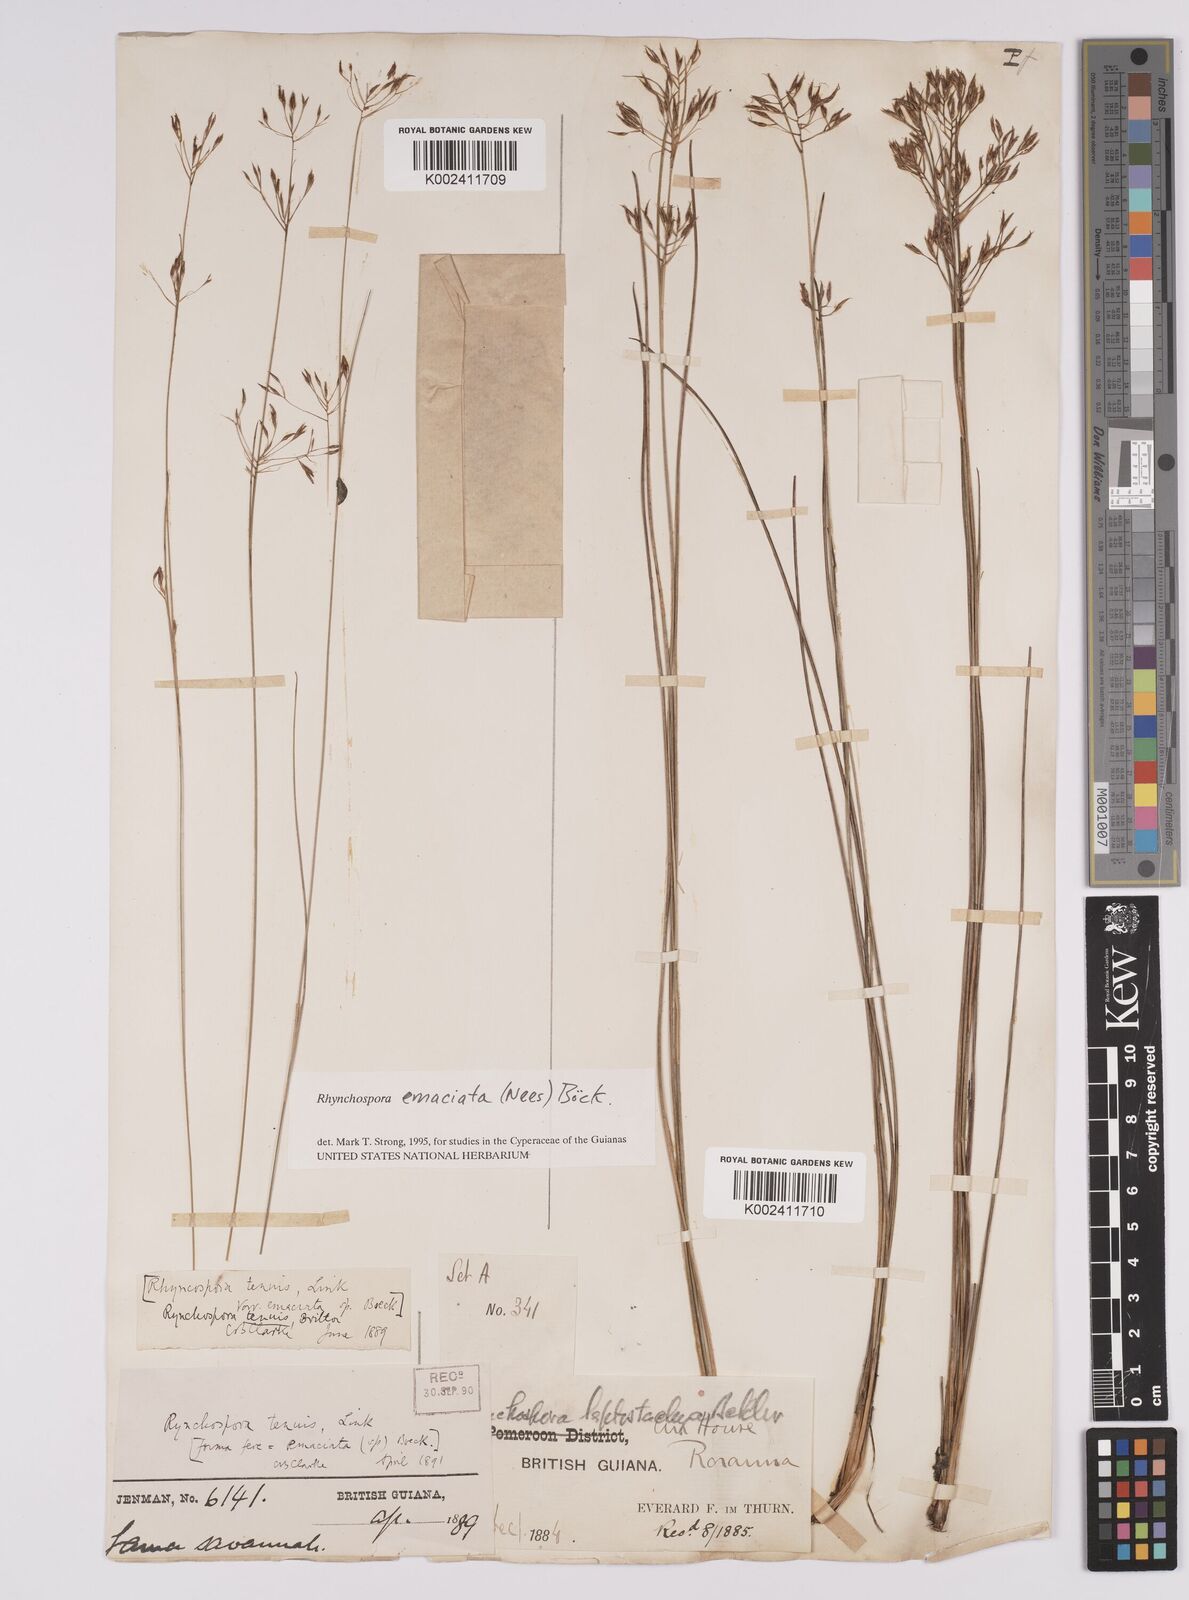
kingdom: Plantae
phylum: Tracheophyta
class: Liliopsida
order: Poales
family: Cyperaceae
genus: Rhynchospora
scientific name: Rhynchospora emaciata
